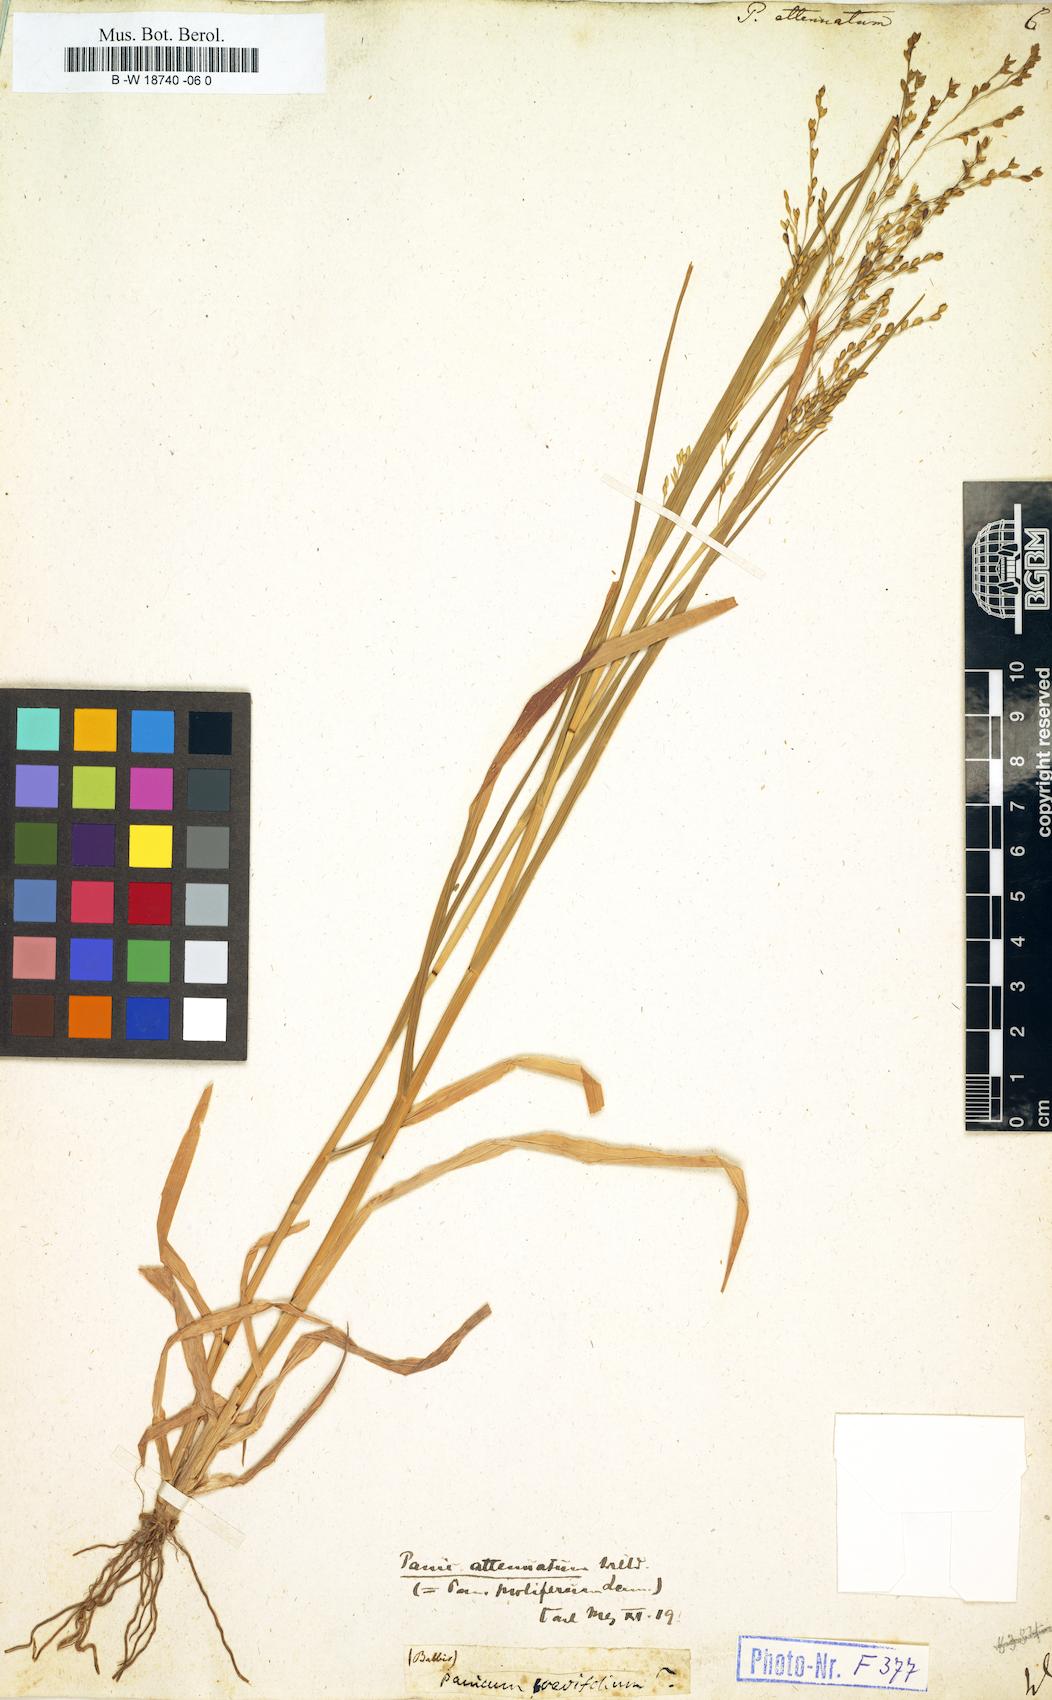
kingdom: Plantae
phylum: Tracheophyta
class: Liliopsida
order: Poales
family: Poaceae
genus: Panicum
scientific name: Panicum sumatrense
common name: Little millet
